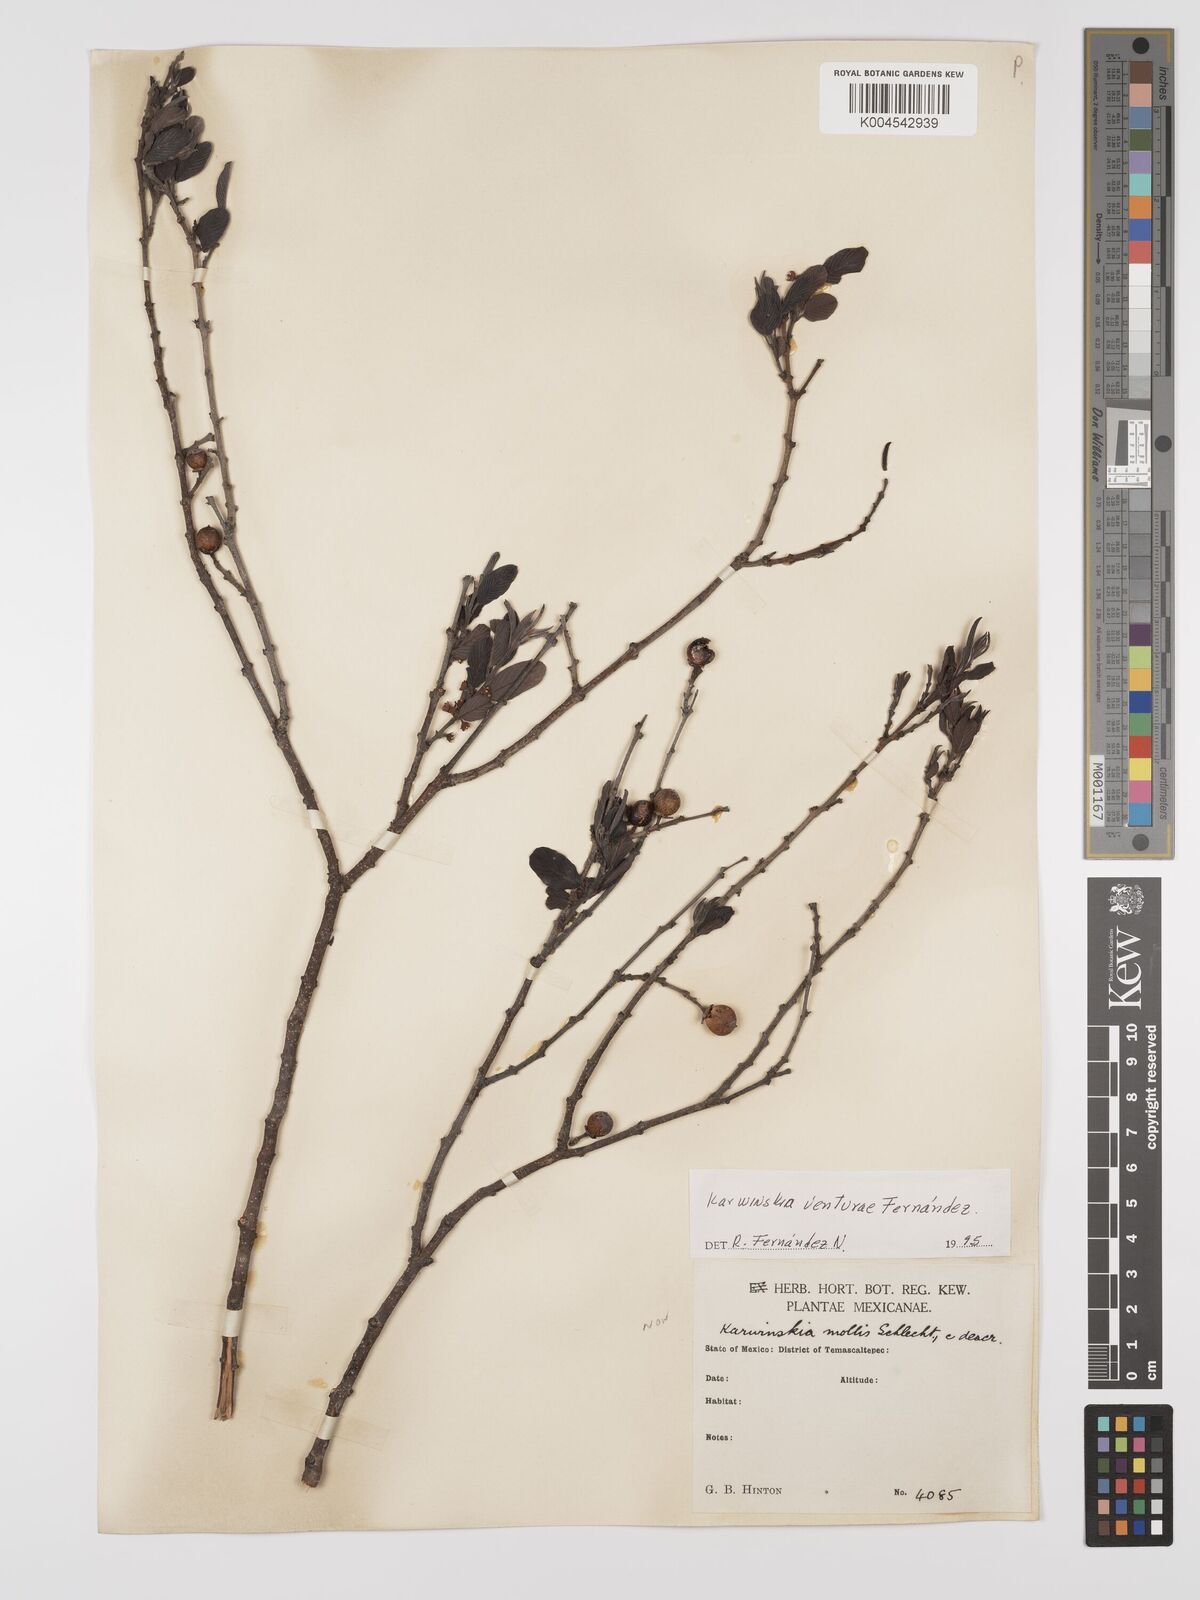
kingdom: Plantae
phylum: Tracheophyta
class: Magnoliopsida
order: Rosales
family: Rhamnaceae
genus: Karwinskia
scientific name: Karwinskia venturae
